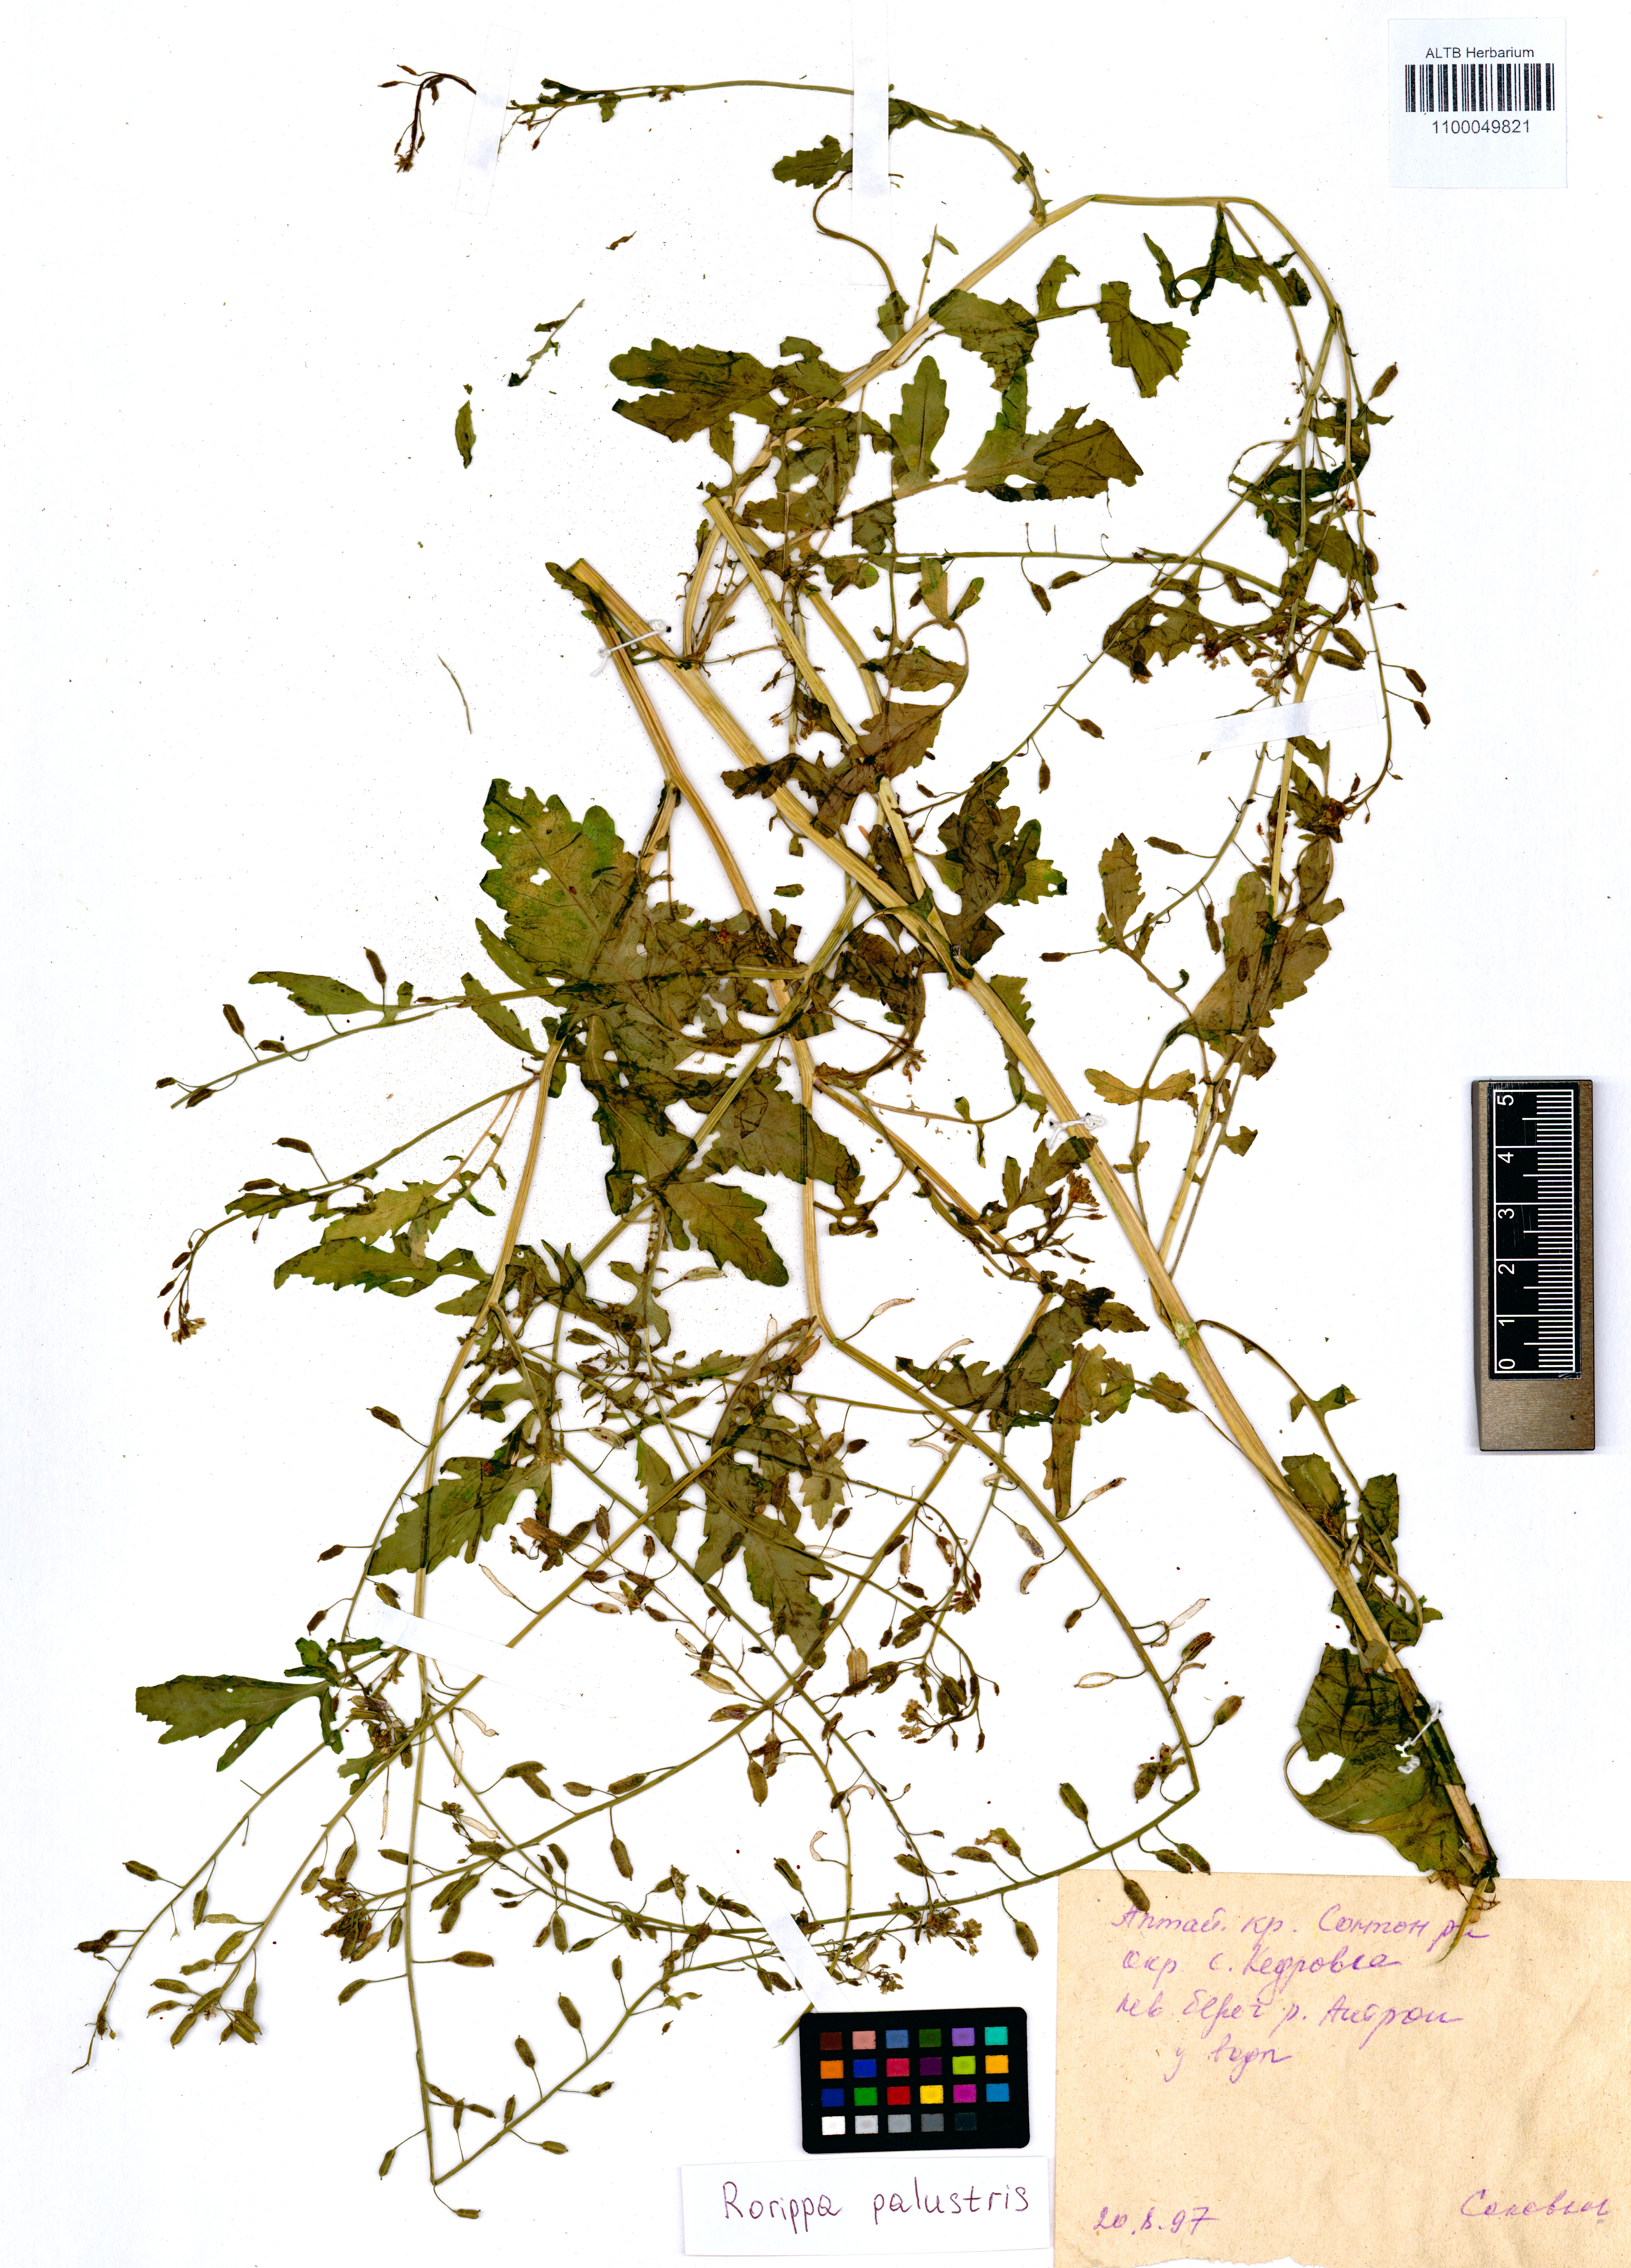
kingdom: Plantae
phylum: Tracheophyta
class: Magnoliopsida
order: Brassicales
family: Brassicaceae
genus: Rorippa
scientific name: Rorippa palustris
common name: Marsh yellow-cress
